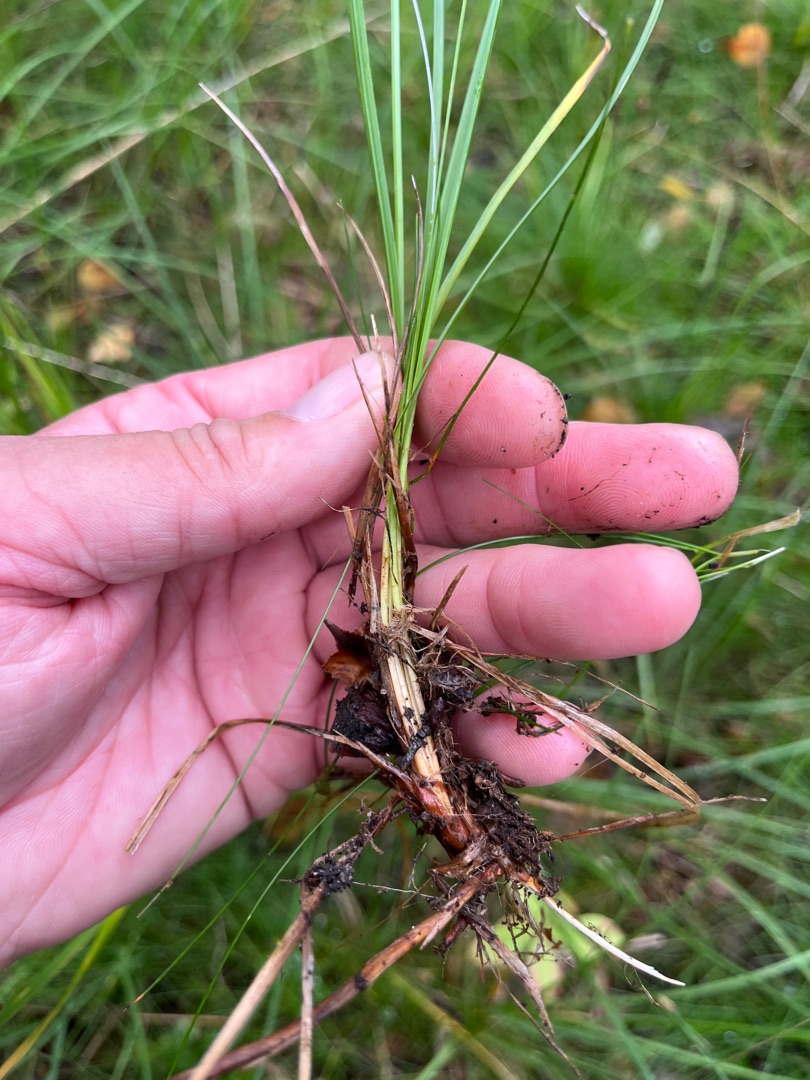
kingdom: Plantae
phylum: Tracheophyta
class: Liliopsida
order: Poales
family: Cyperaceae
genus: Carex
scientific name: Carex nigra
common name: Almindelig star
